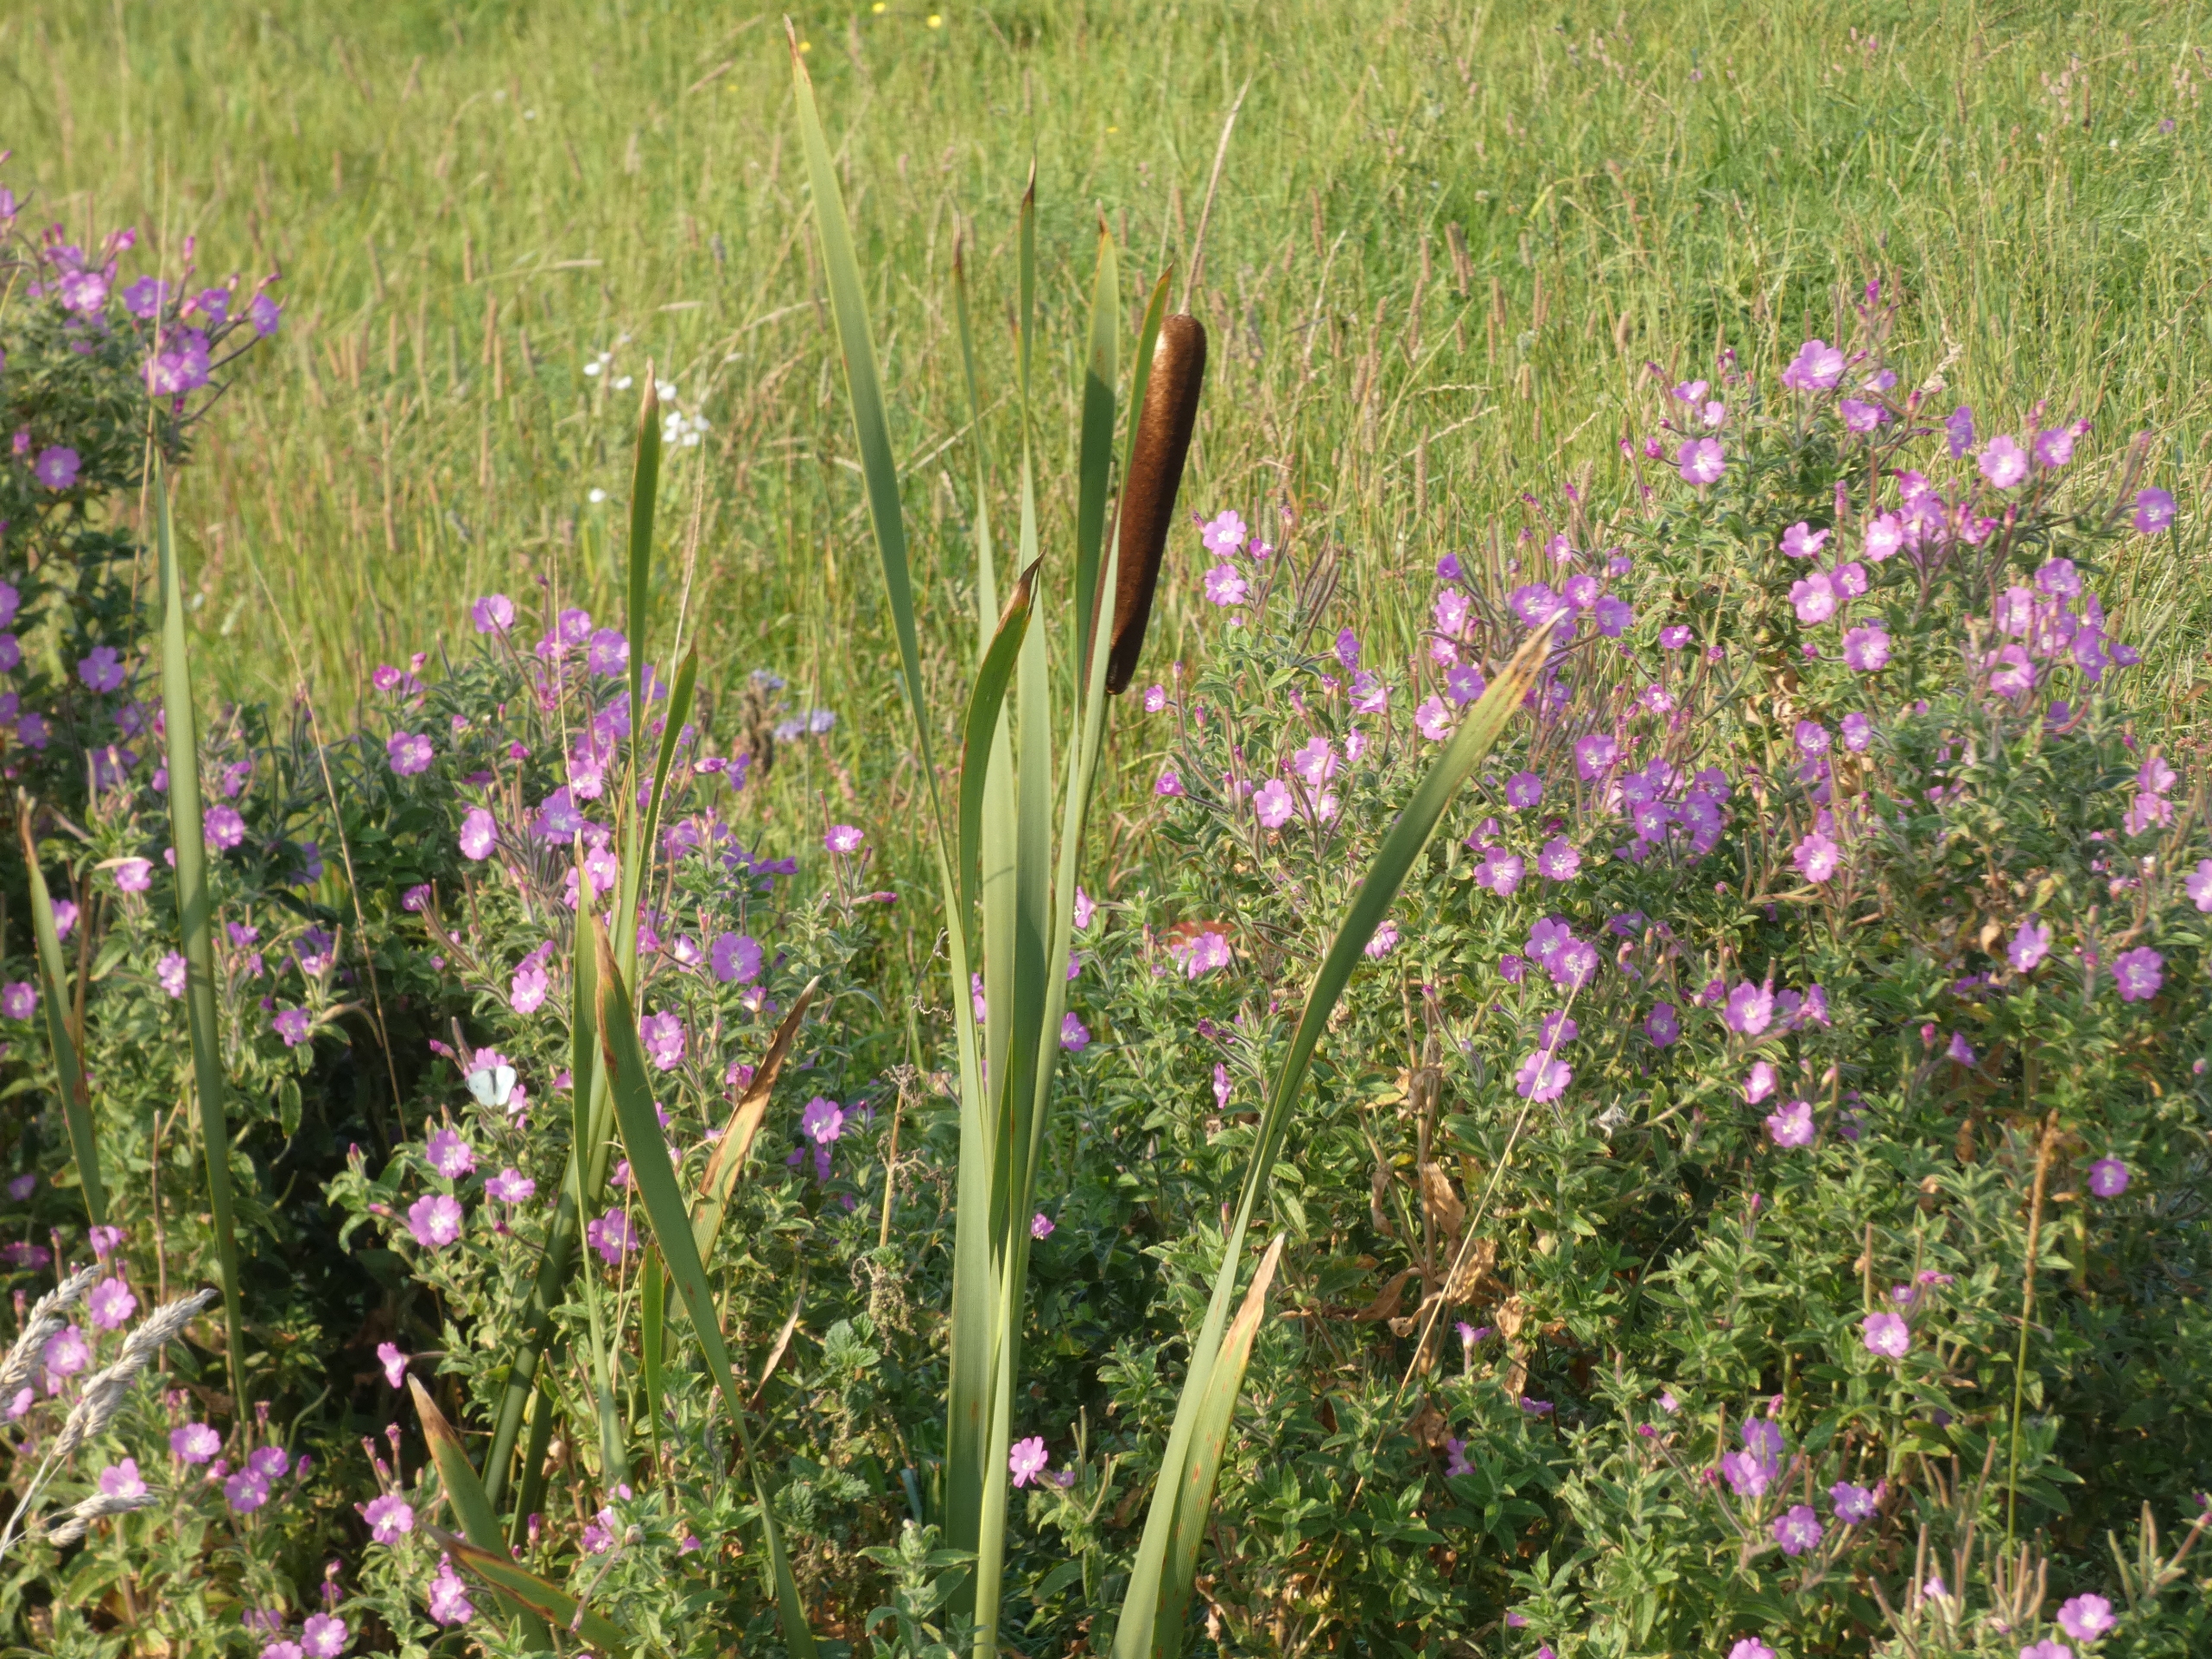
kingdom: Plantae
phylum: Tracheophyta
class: Liliopsida
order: Poales
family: Typhaceae
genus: Typha
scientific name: Typha latifolia
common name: Bredbladet dunhammer
